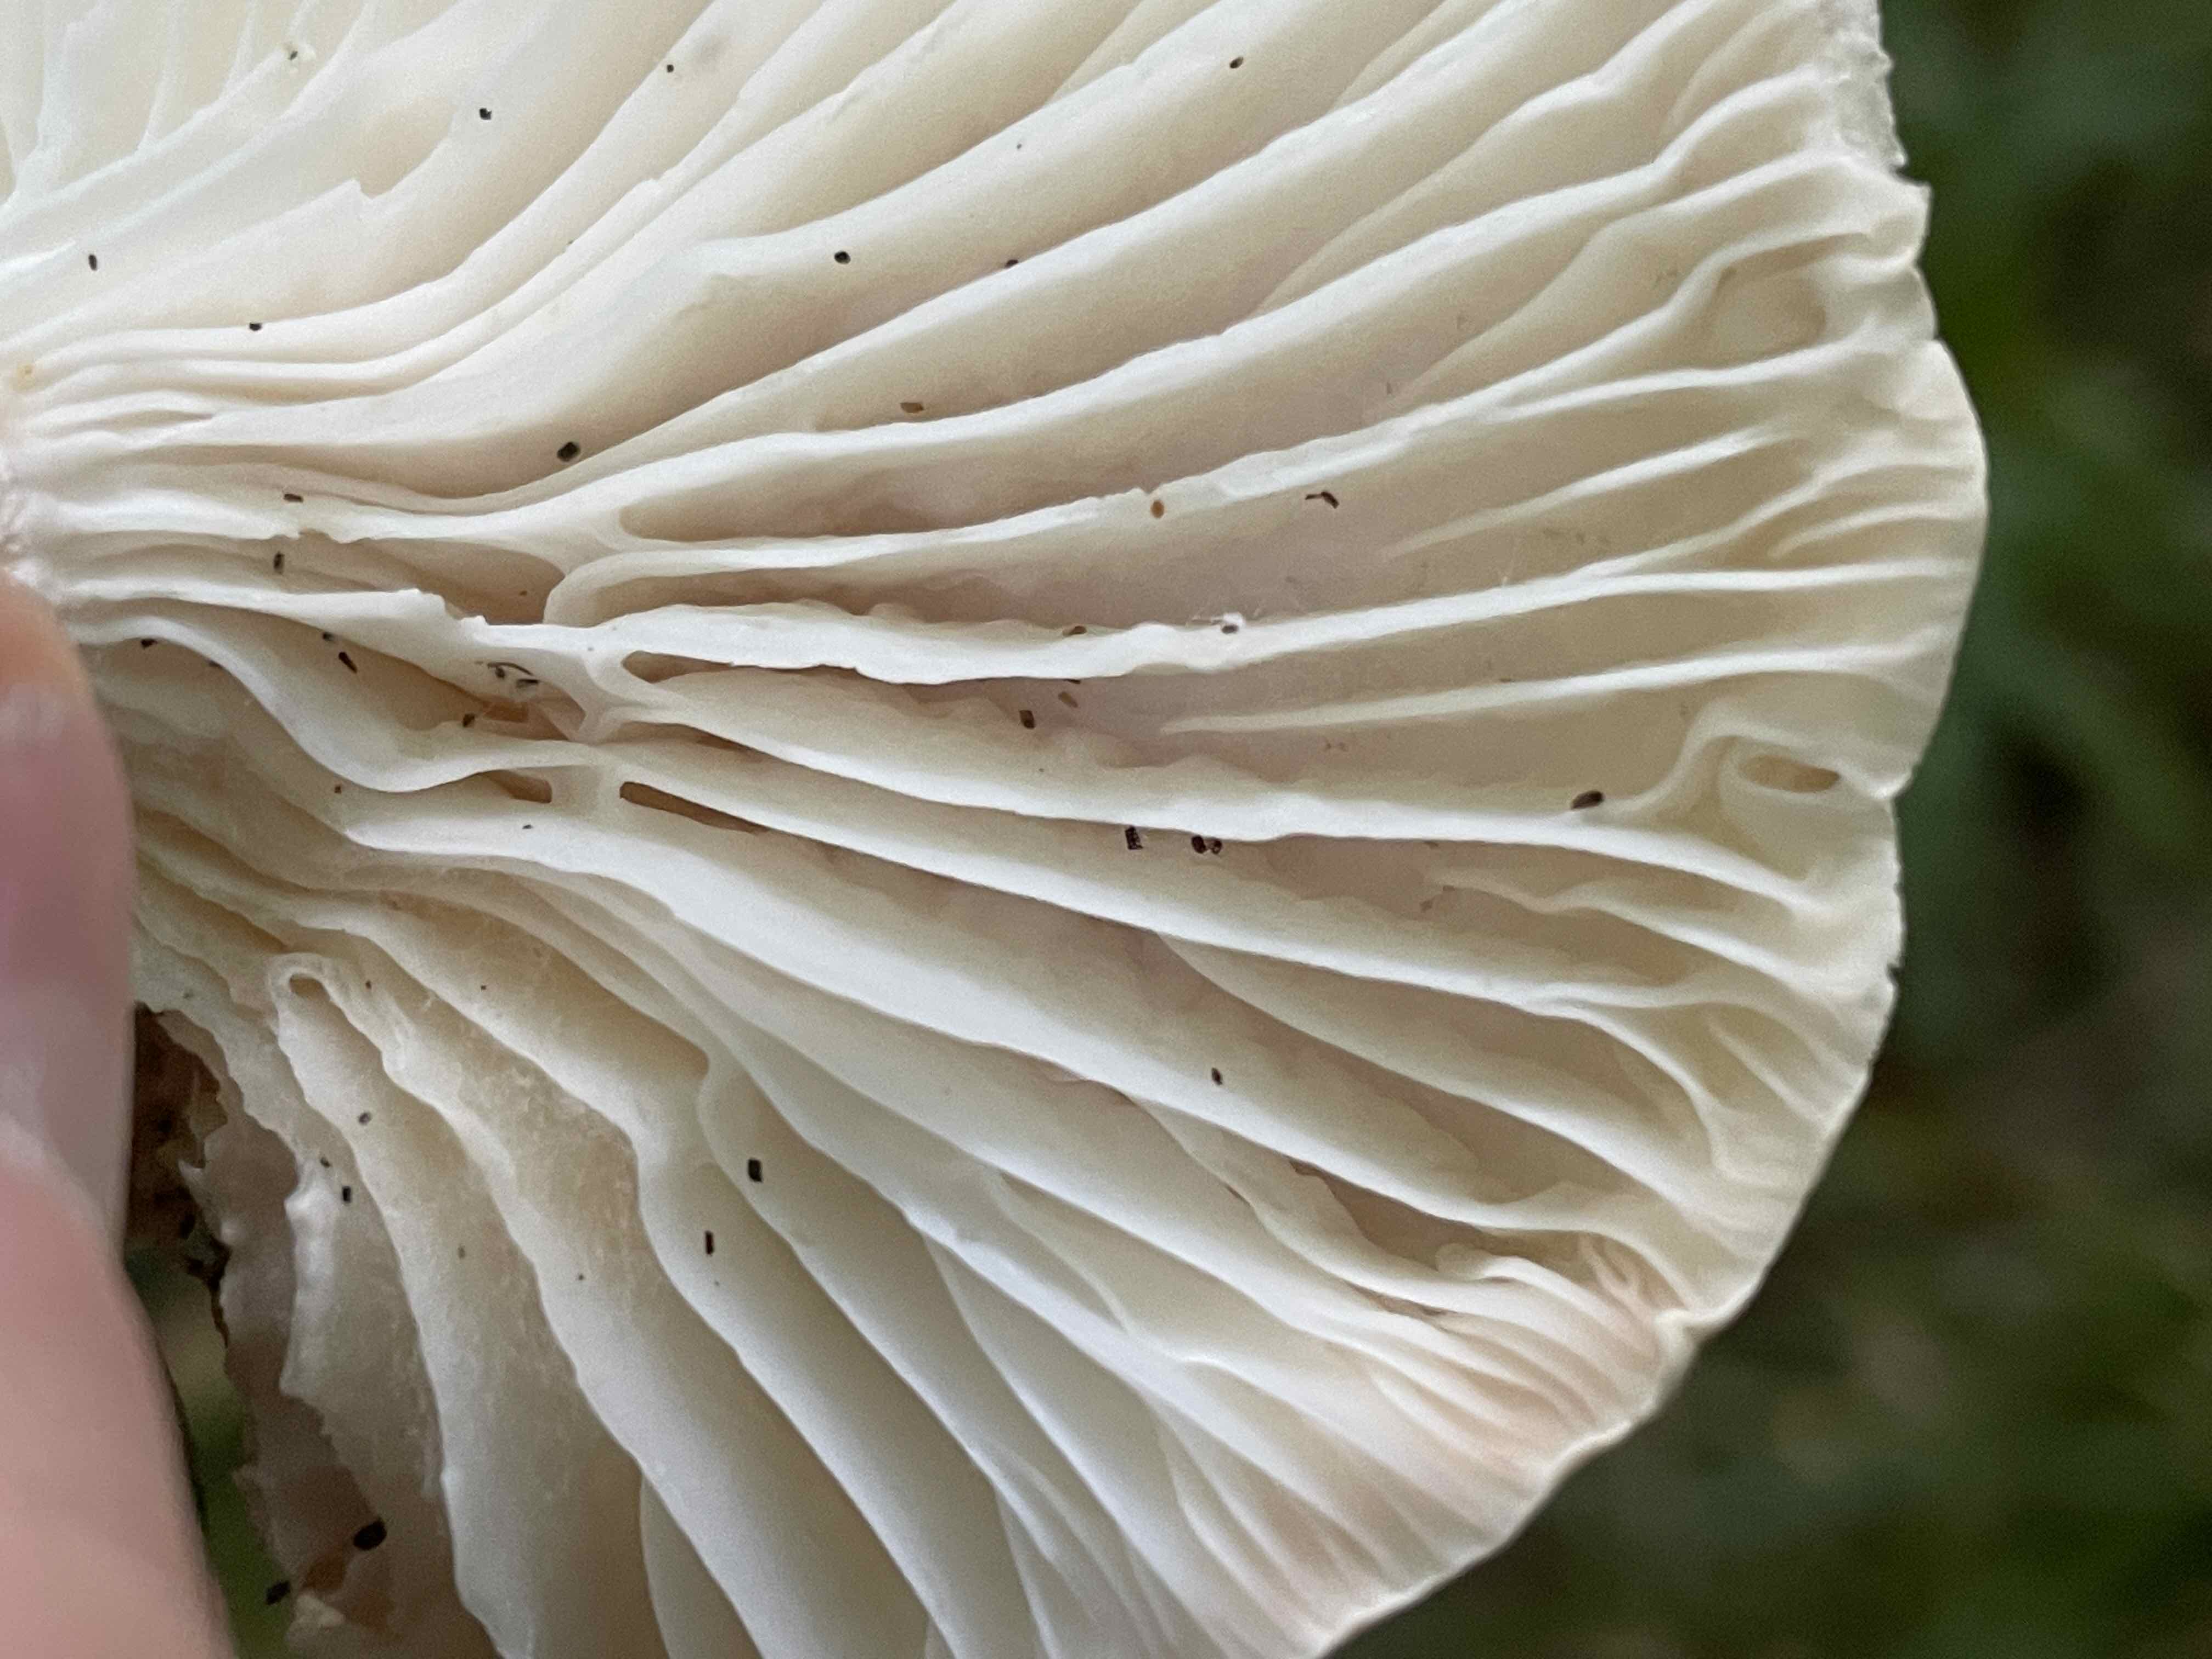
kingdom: Fungi
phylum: Basidiomycota
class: Agaricomycetes
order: Agaricales
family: Hygrophoraceae
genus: Hygrophorus
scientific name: Hygrophorus poetarum
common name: duftende sneglehat
